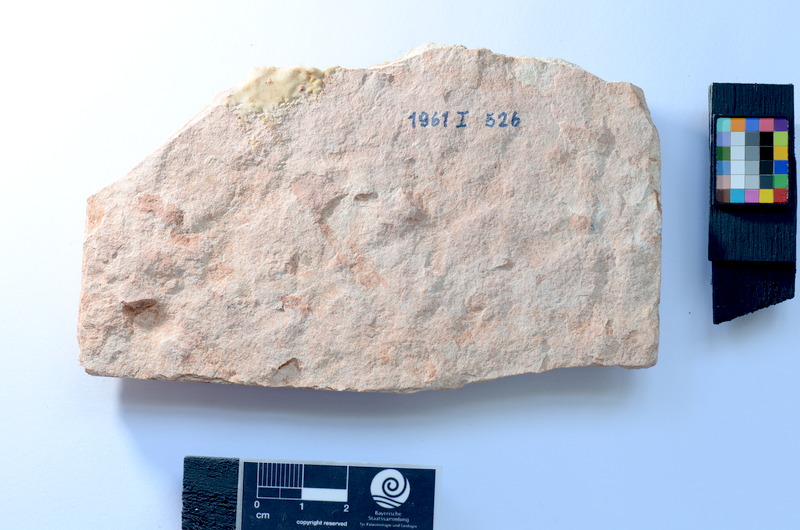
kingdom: Animalia
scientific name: Animalia
